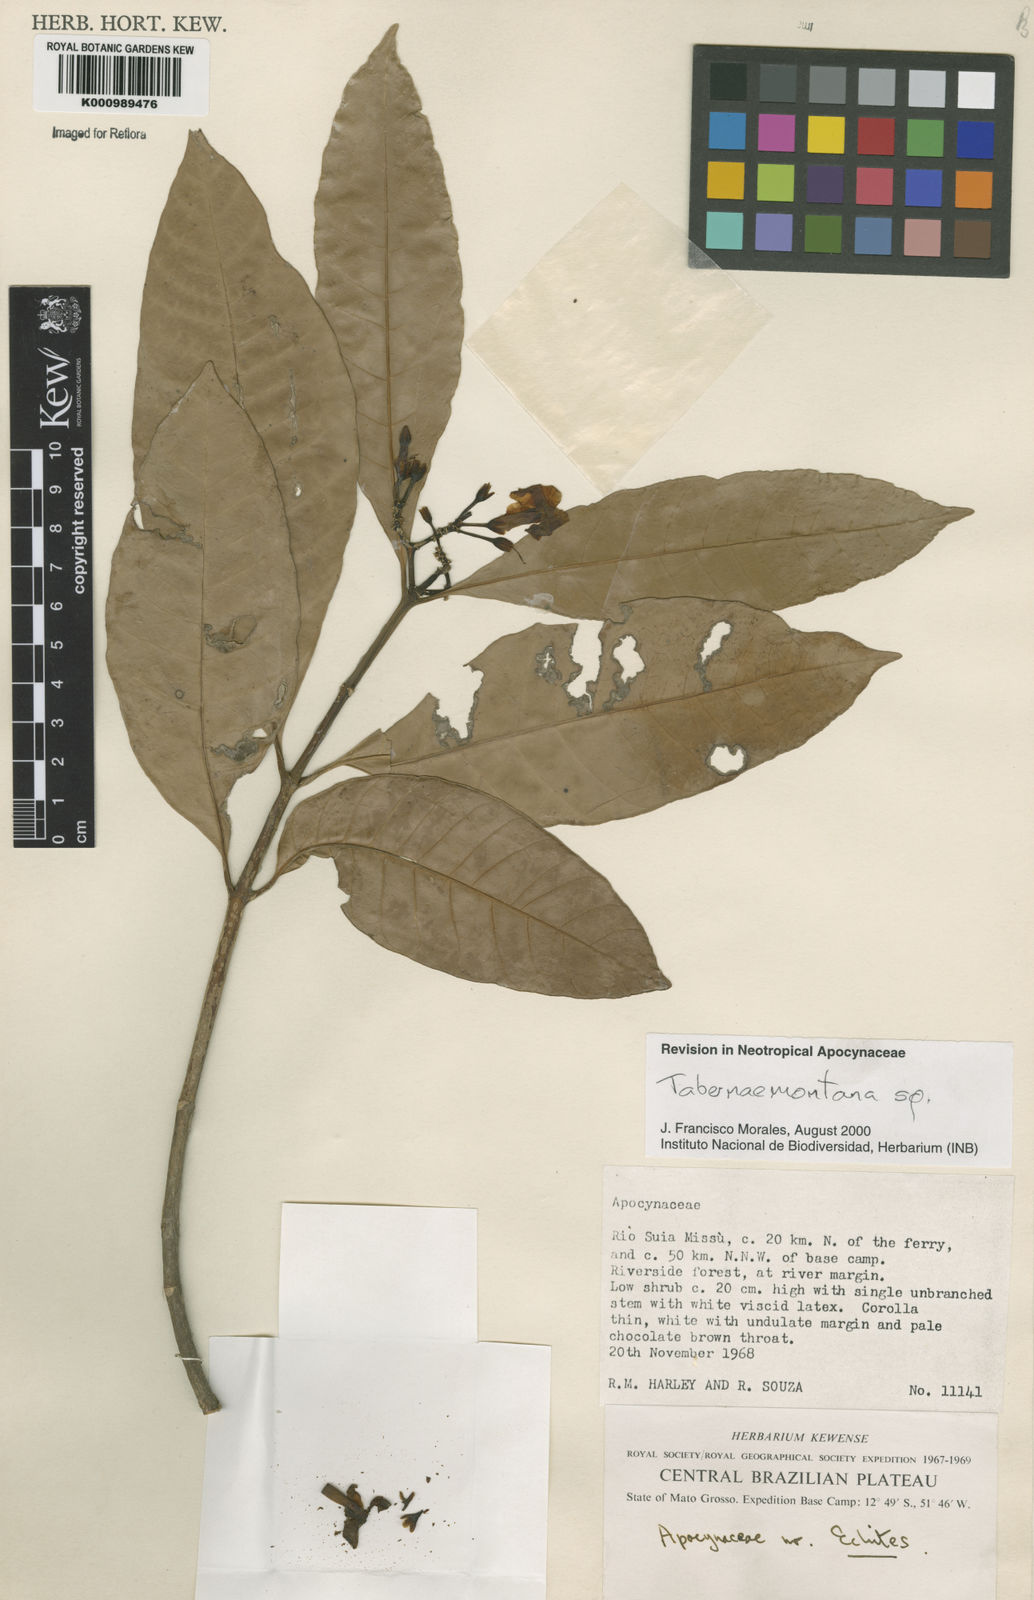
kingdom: Plantae
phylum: Tracheophyta
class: Magnoliopsida
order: Gentianales
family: Apocynaceae
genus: Tabernaemontana
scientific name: Tabernaemontana
